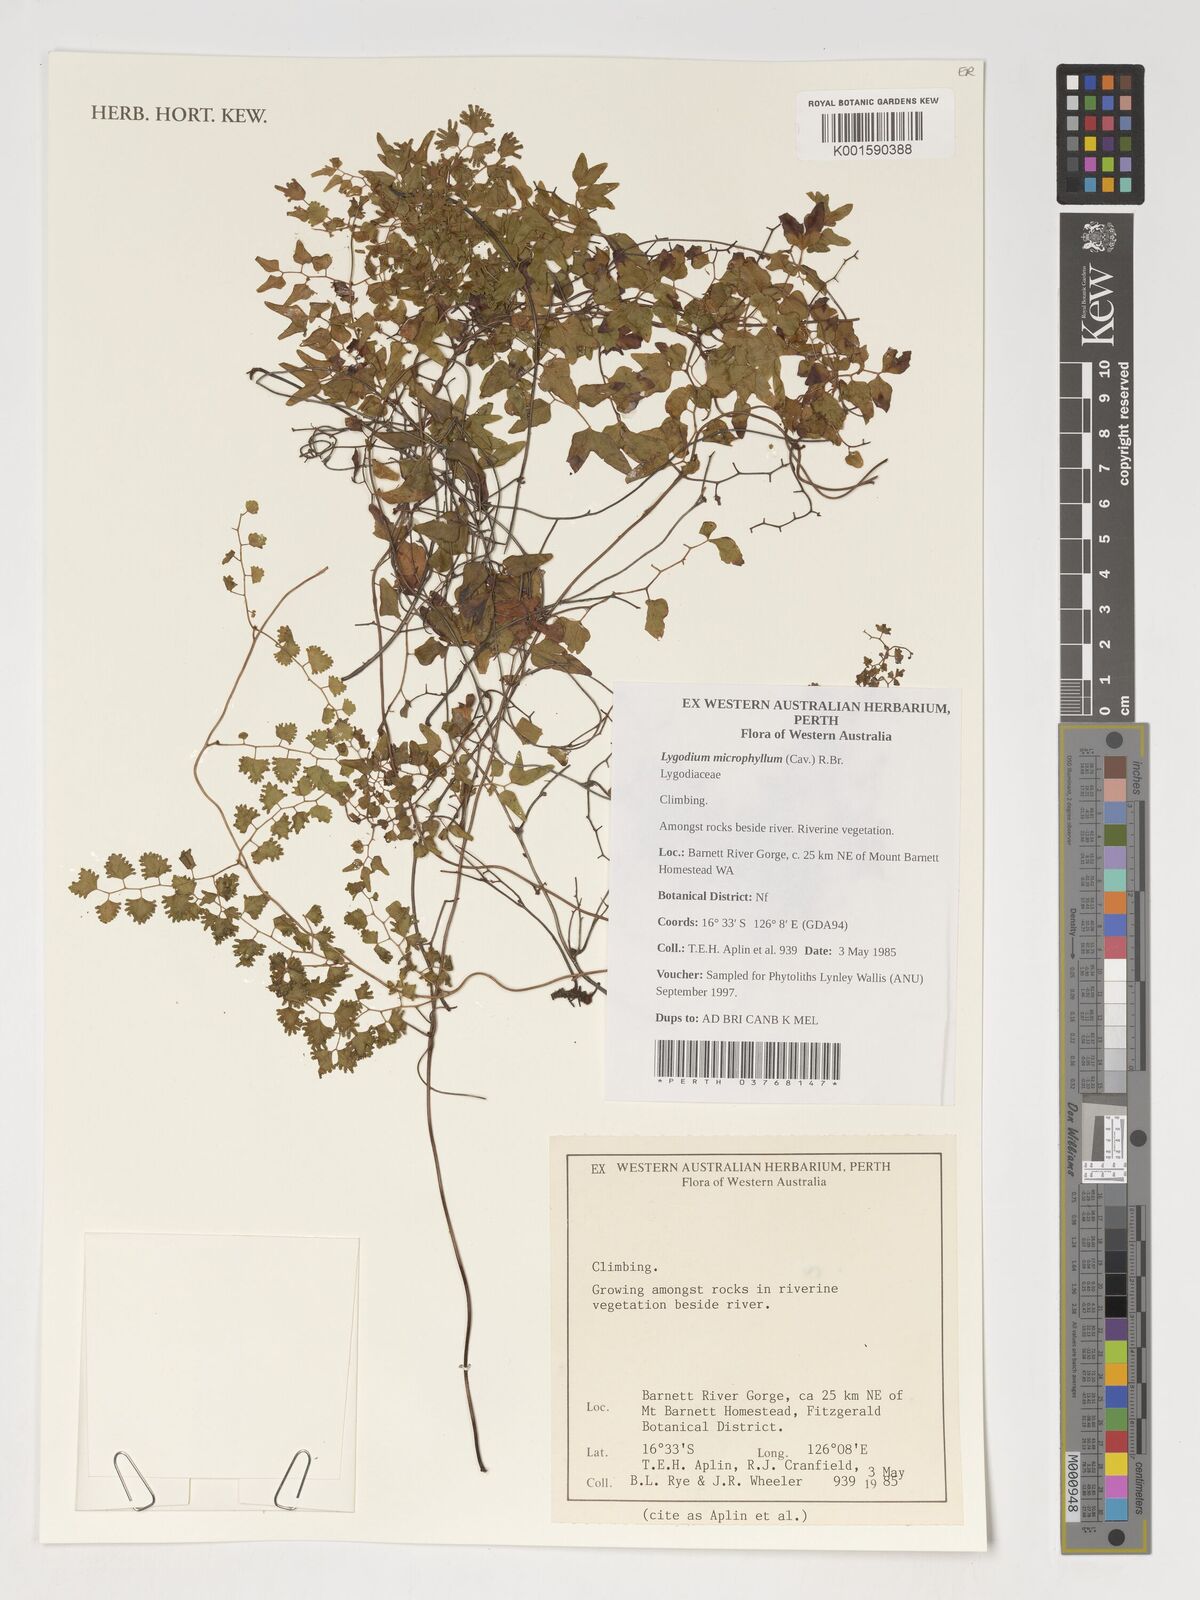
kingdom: Plantae
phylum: Tracheophyta
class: Polypodiopsida
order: Schizaeales
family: Lygodiaceae
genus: Lygodium
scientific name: Lygodium microphyllum
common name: Small-leaf climbing fern
